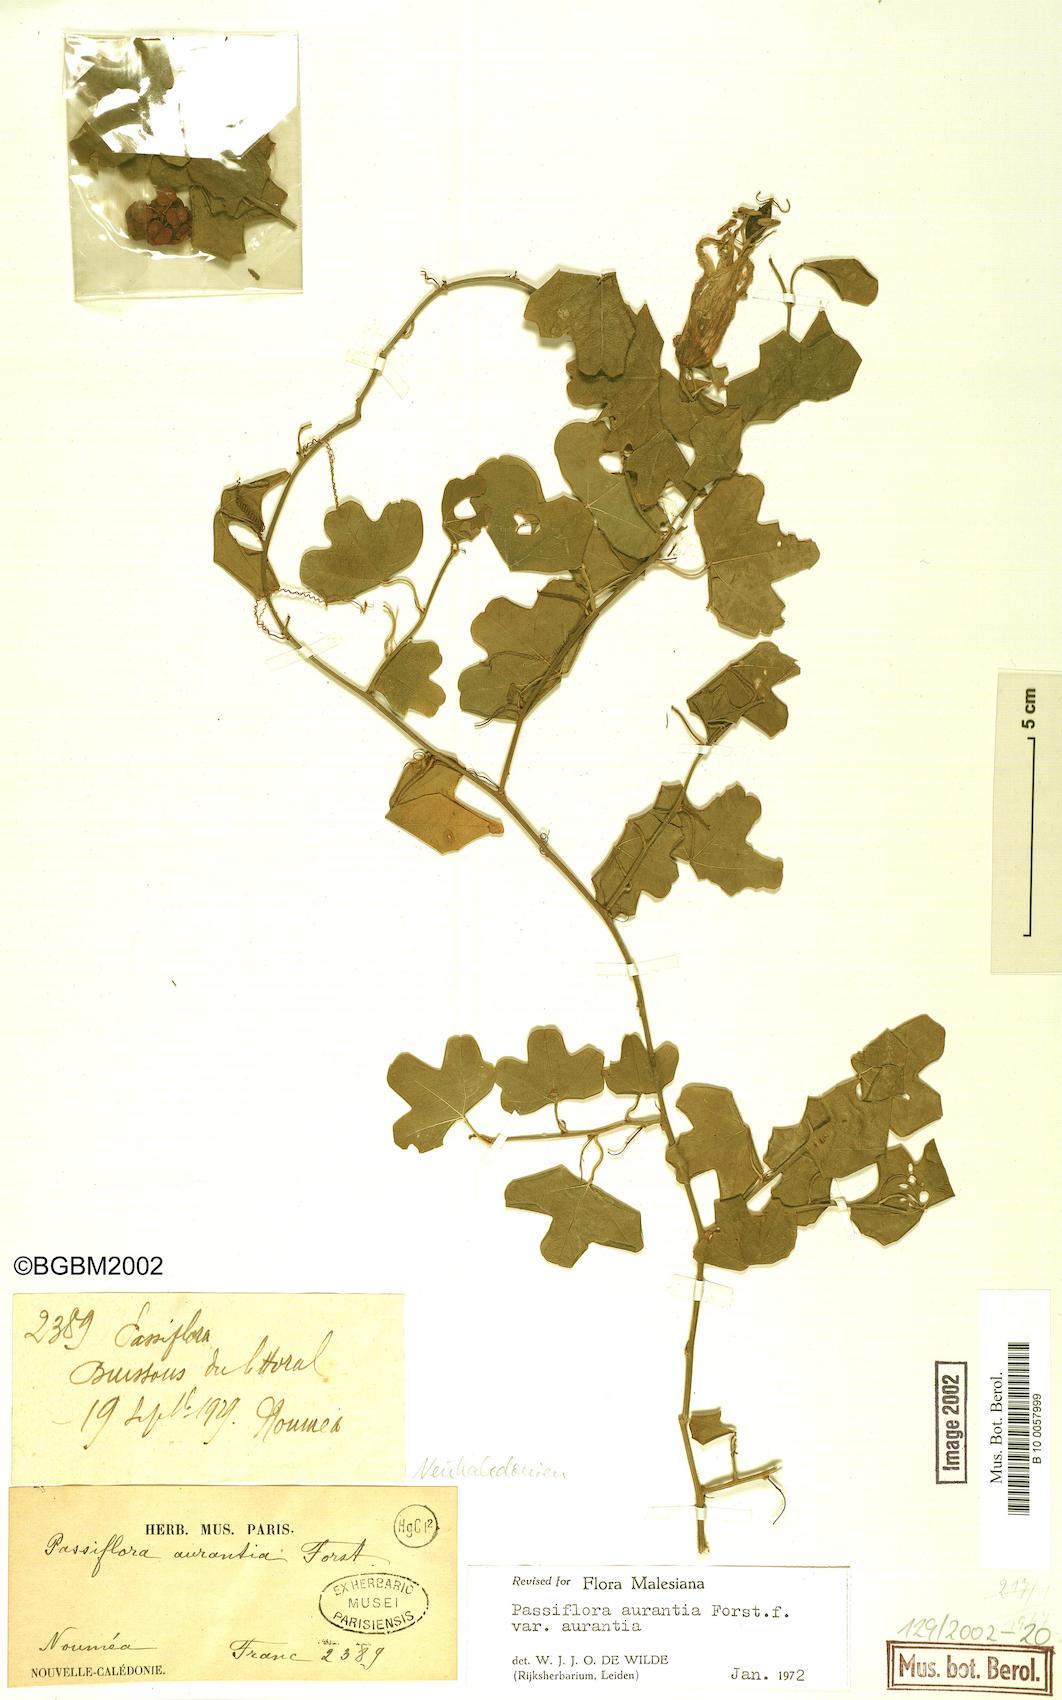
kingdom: Plantae
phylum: Tracheophyta
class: Magnoliopsida
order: Malpighiales
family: Passifloraceae
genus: Passiflora
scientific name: Passiflora aurantia
